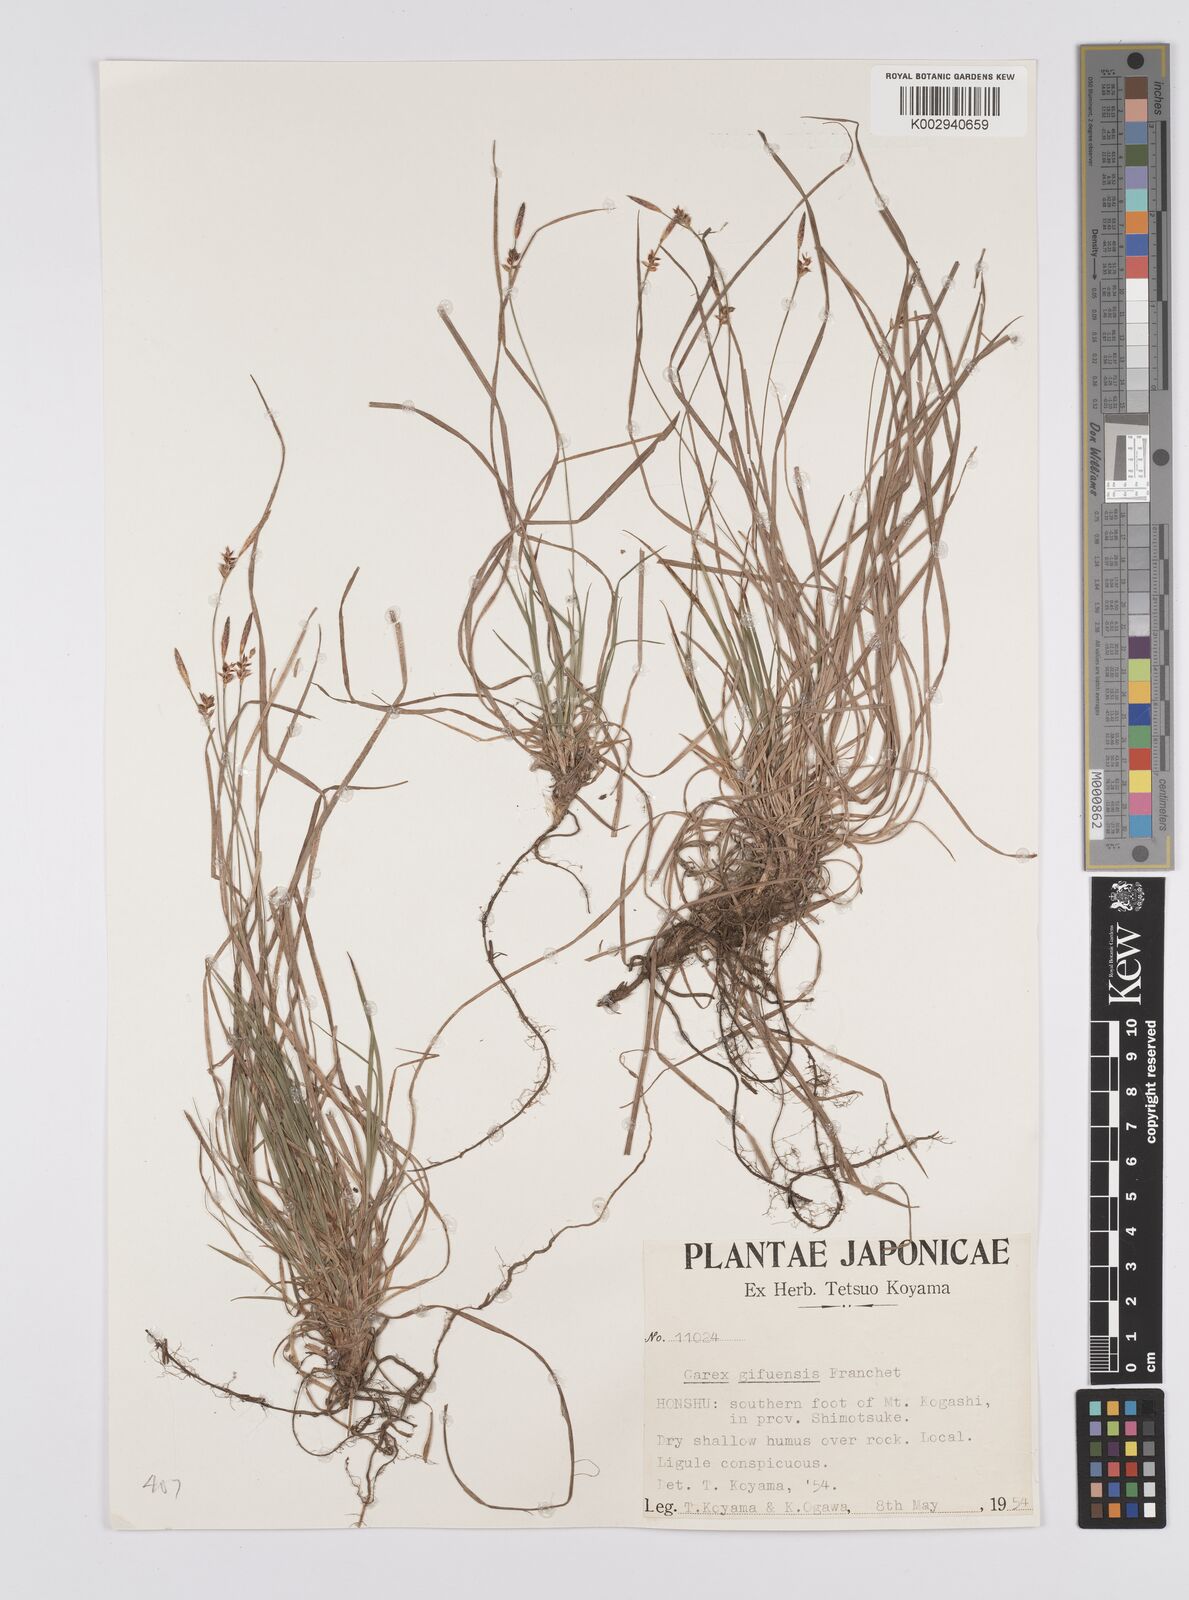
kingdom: Plantae
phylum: Tracheophyta
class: Liliopsida
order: Poales
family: Cyperaceae
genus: Carex
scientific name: Carex gifuensis
